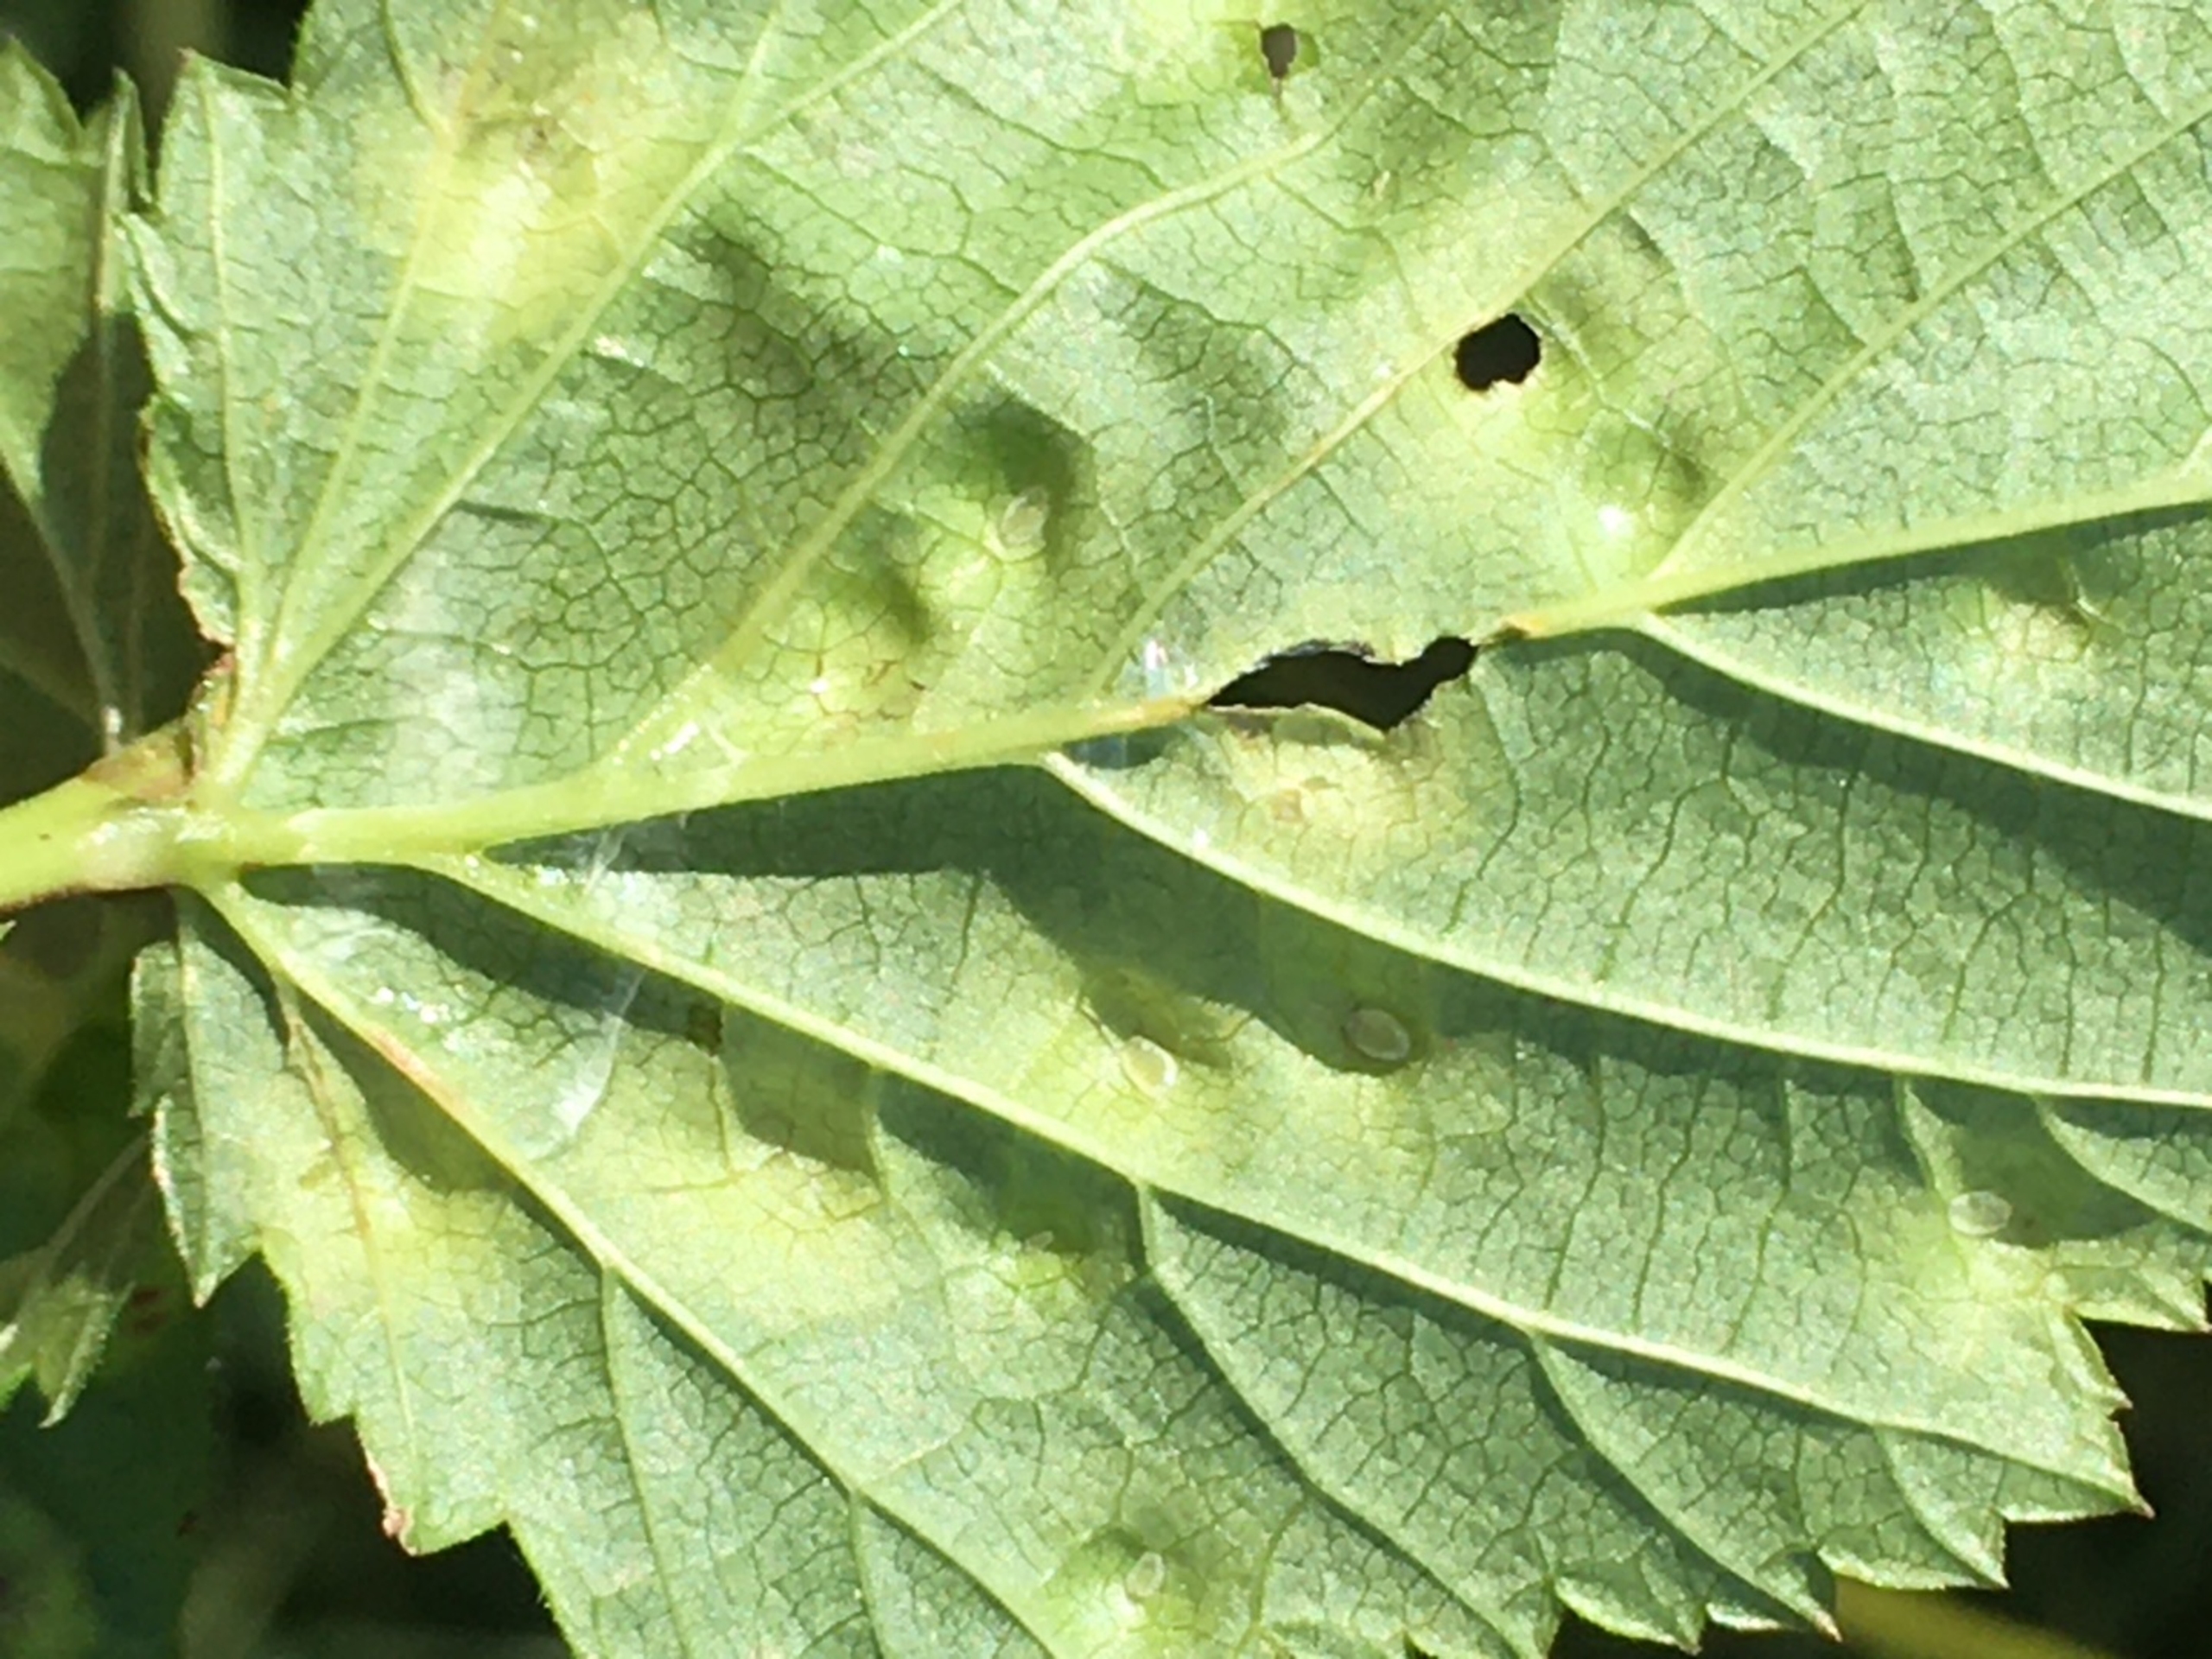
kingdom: Animalia
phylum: Arthropoda
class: Insecta
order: Diptera
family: Cecidomyiidae
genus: Dasineura
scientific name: Dasineura pustulans
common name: Mjødurtblistgalmyg
